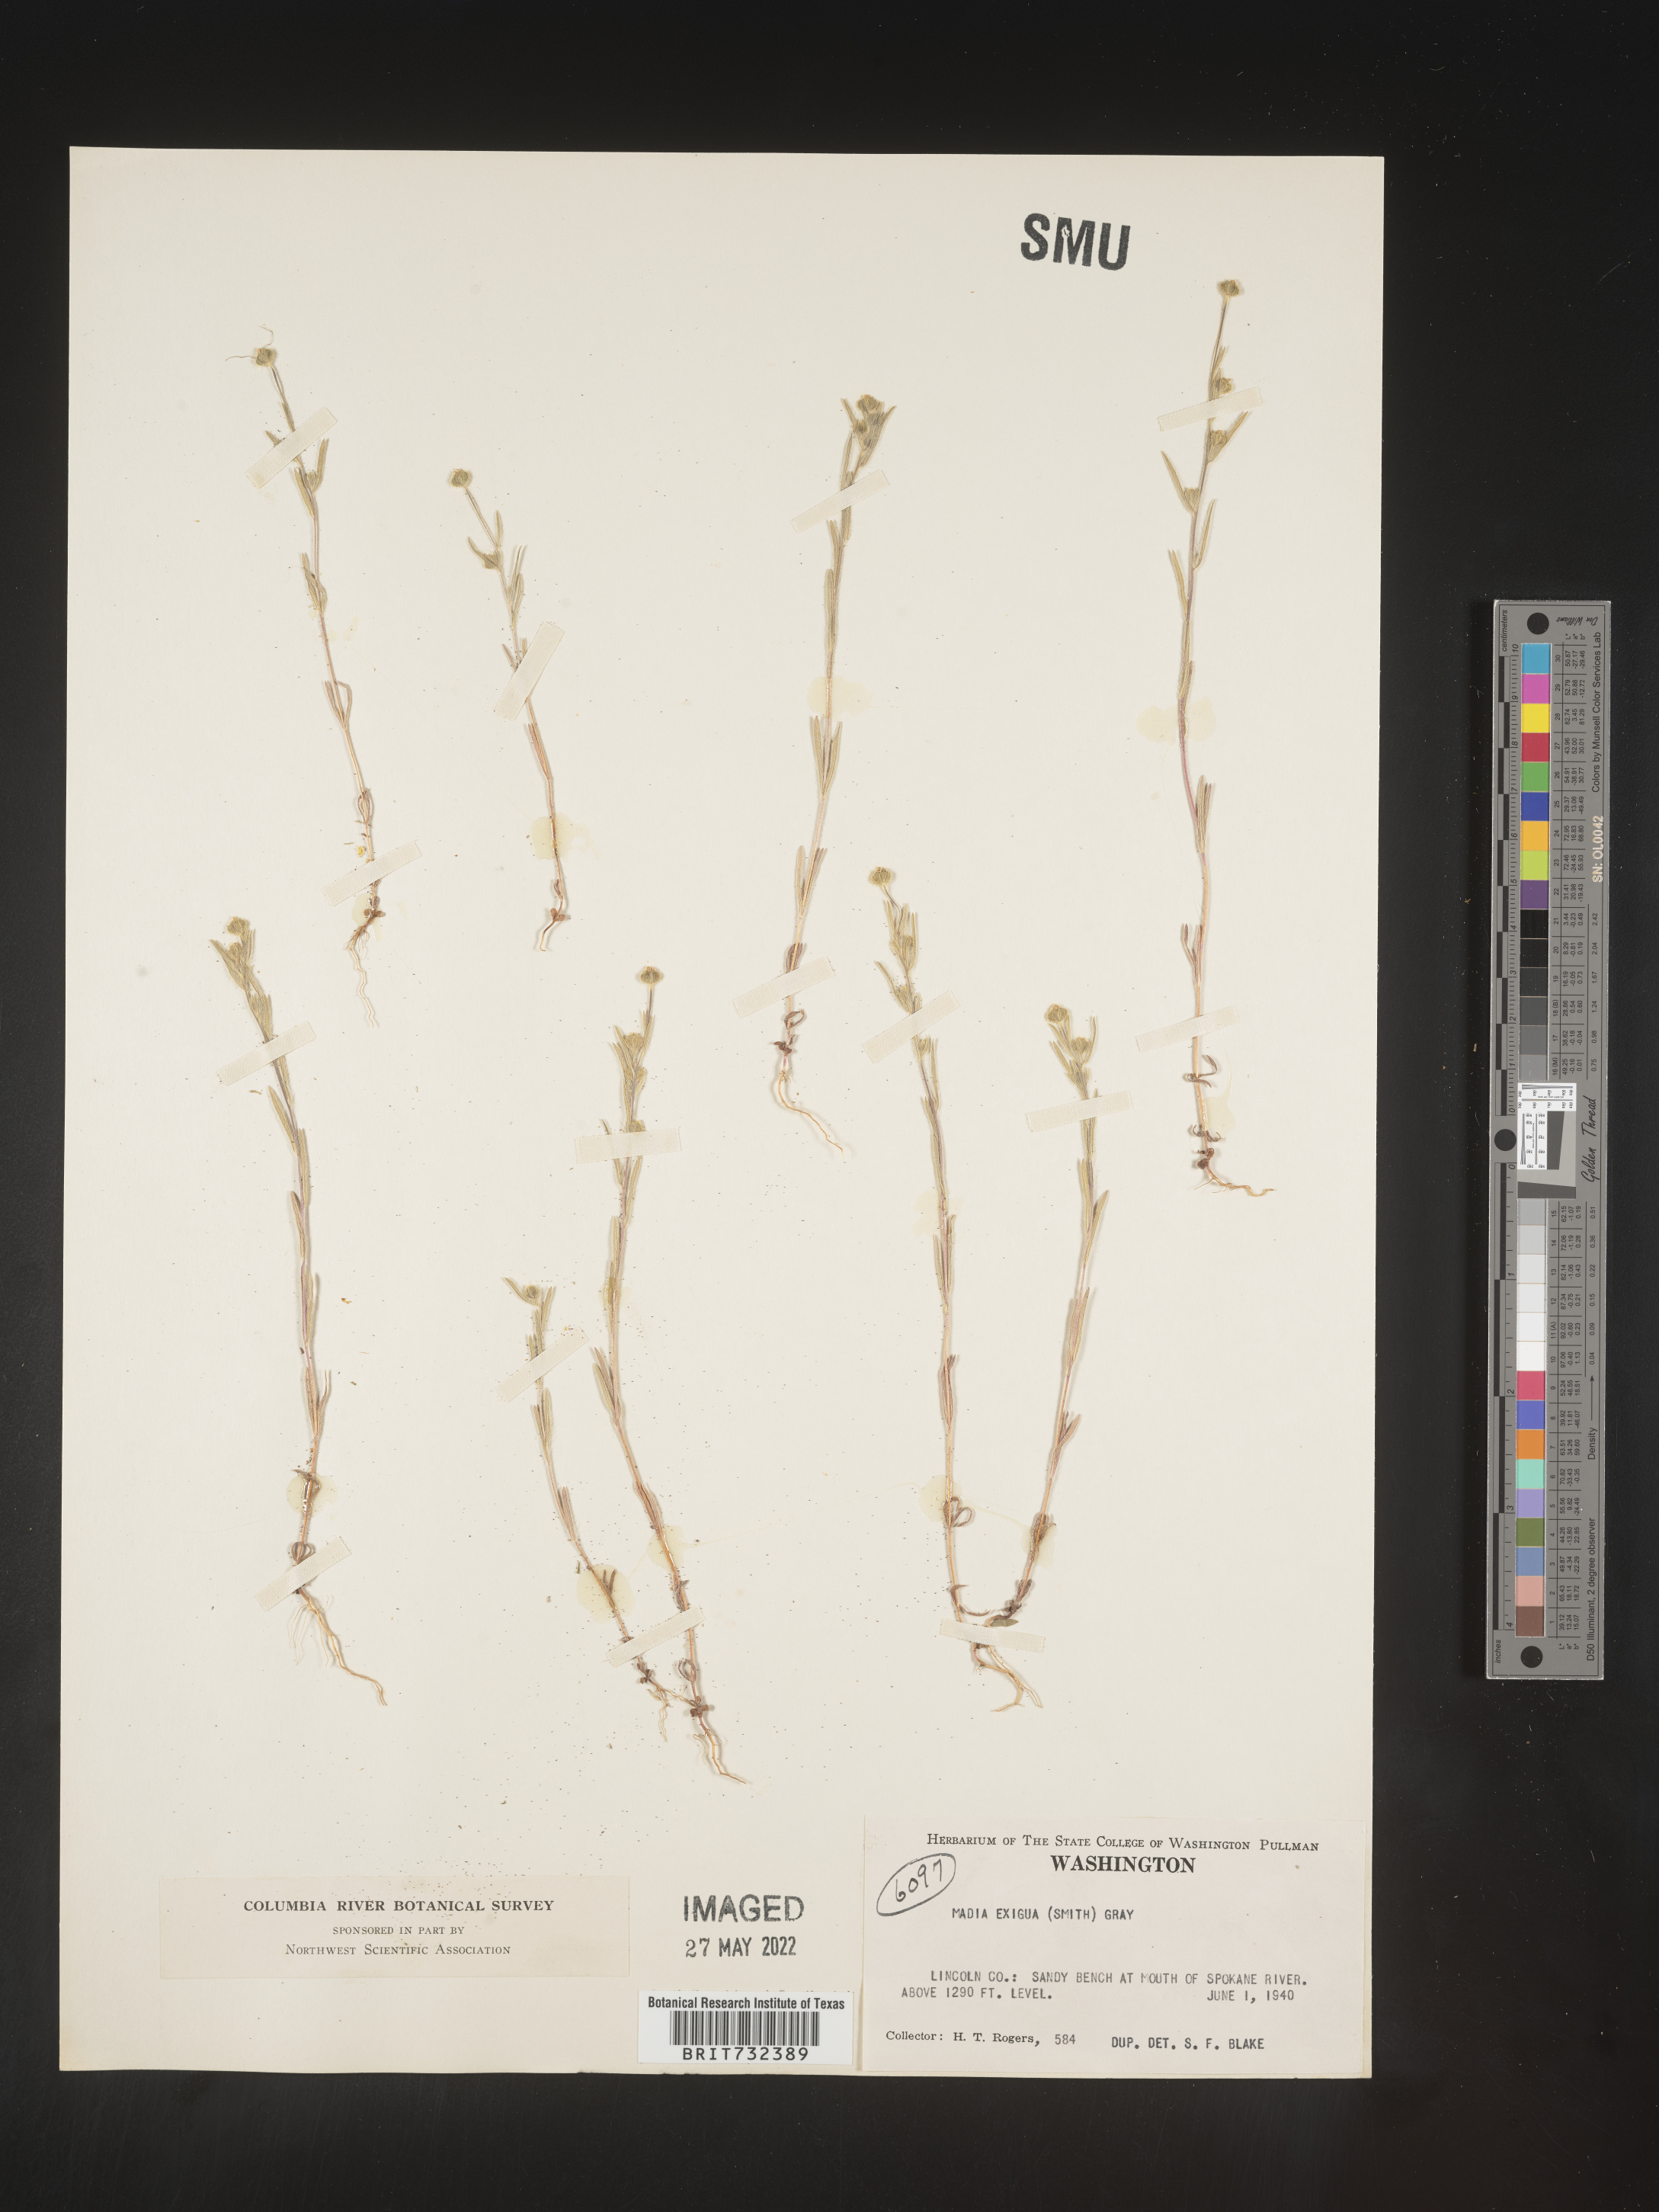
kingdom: Plantae
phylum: Tracheophyta
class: Magnoliopsida
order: Asterales
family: Asteraceae
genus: Madia
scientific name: Madia
